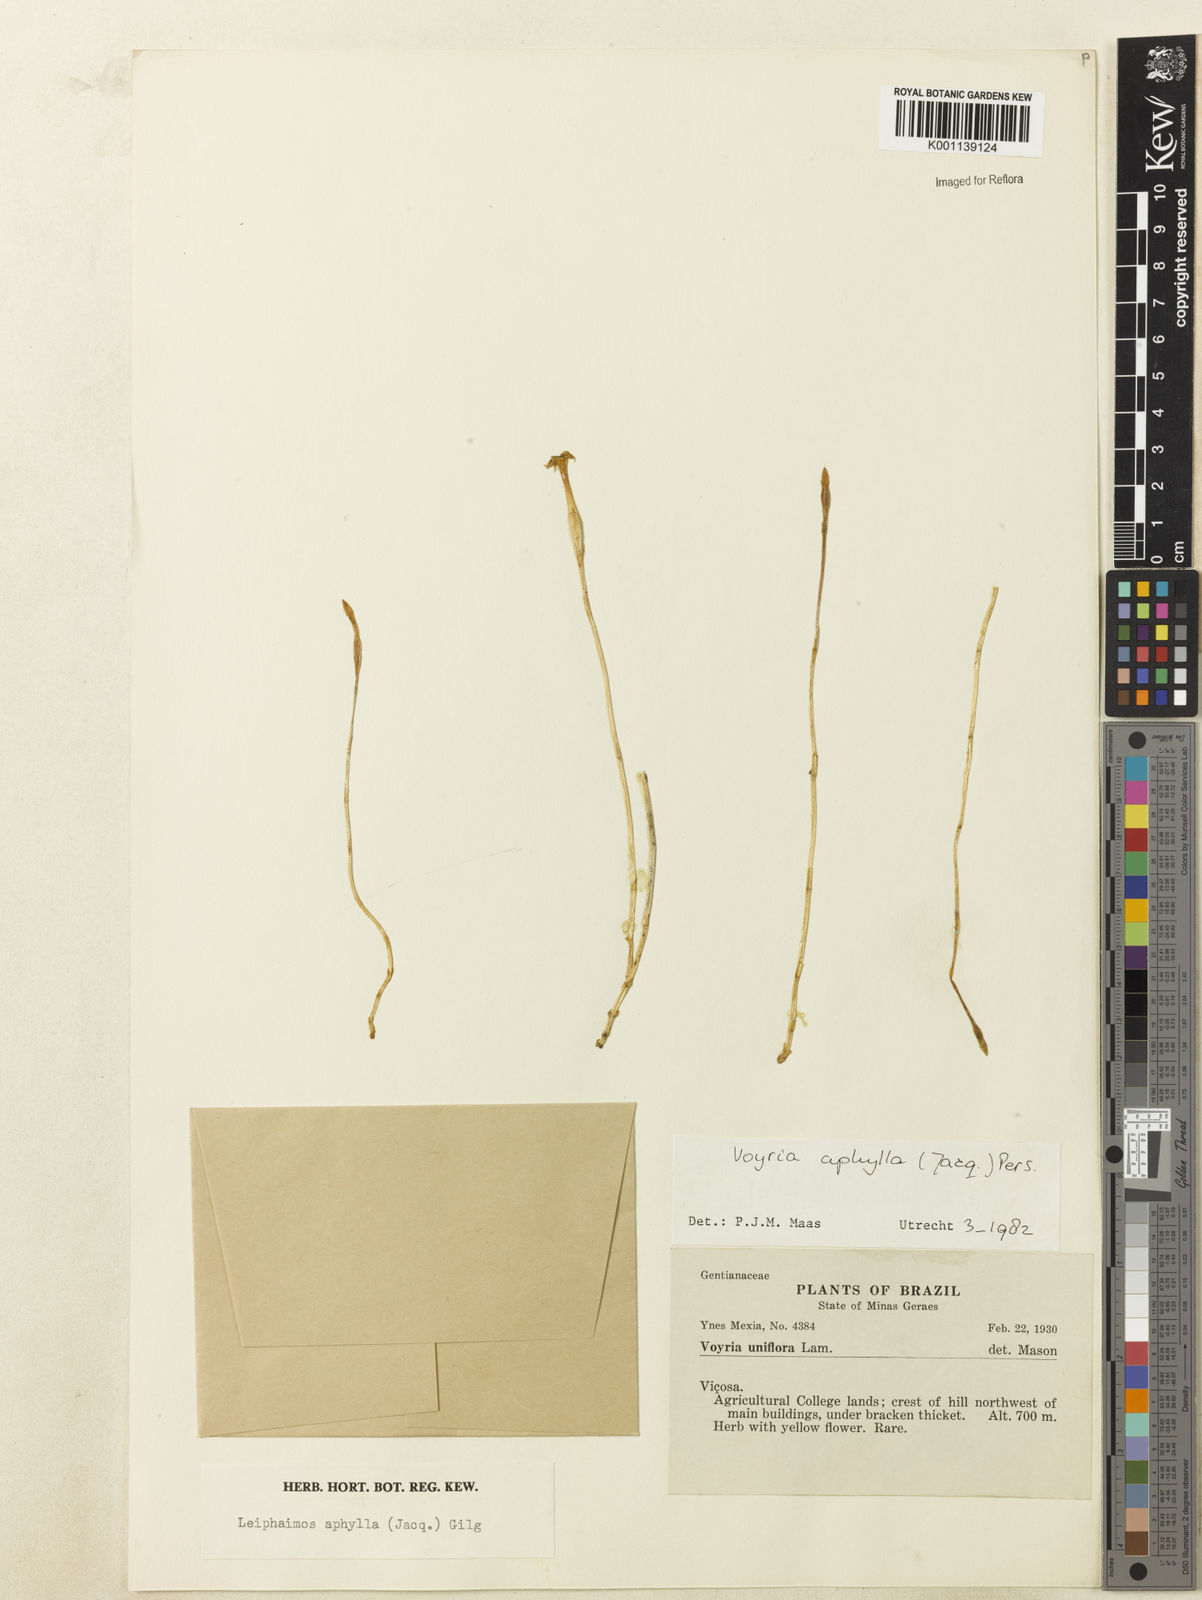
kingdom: Plantae
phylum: Tracheophyta
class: Magnoliopsida
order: Gentianales
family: Gentianaceae
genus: Voyria
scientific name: Voyria aphylla
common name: Leafless ghost plant
